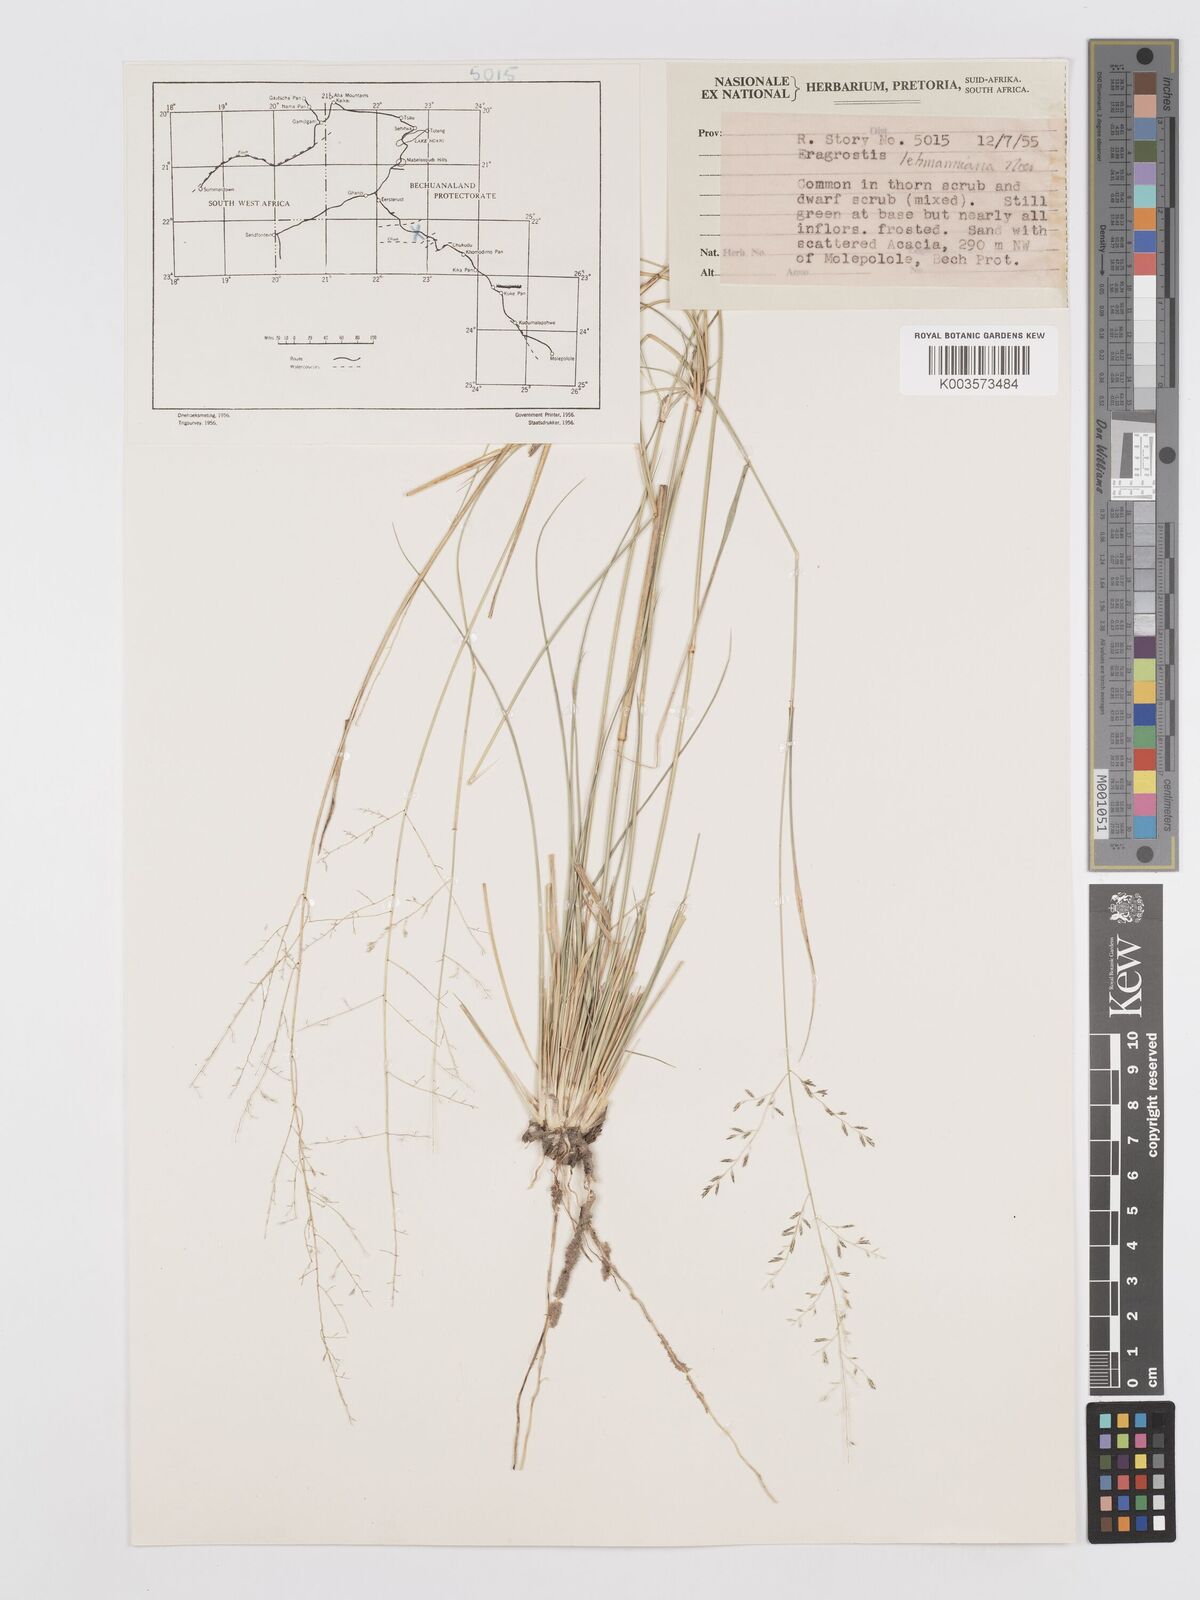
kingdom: Plantae
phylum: Tracheophyta
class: Liliopsida
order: Poales
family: Poaceae
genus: Eragrostis
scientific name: Eragrostis lehmanniana
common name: Lehmann lovegrass
